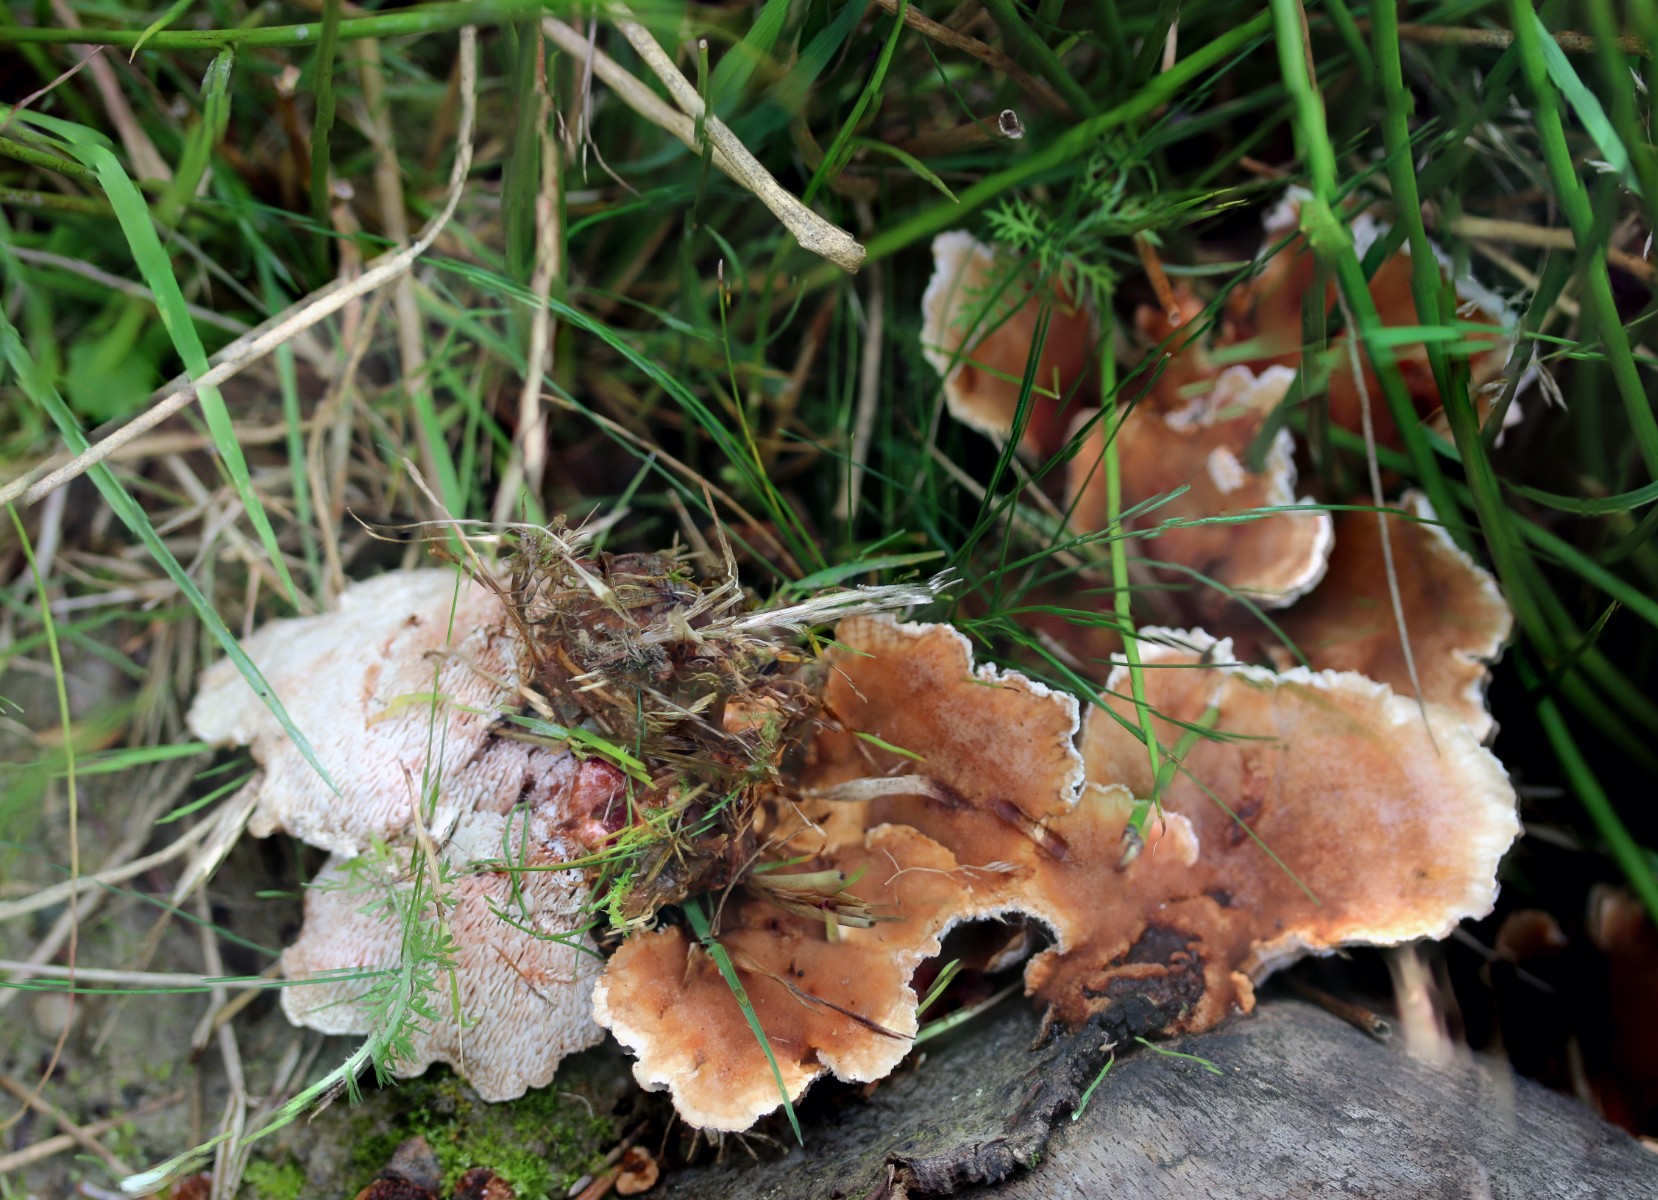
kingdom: Fungi
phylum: Basidiomycota
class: Agaricomycetes
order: Polyporales
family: Podoscyphaceae
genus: Abortiporus
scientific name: Abortiporus biennis
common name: rødmende pjalteporesvamp
